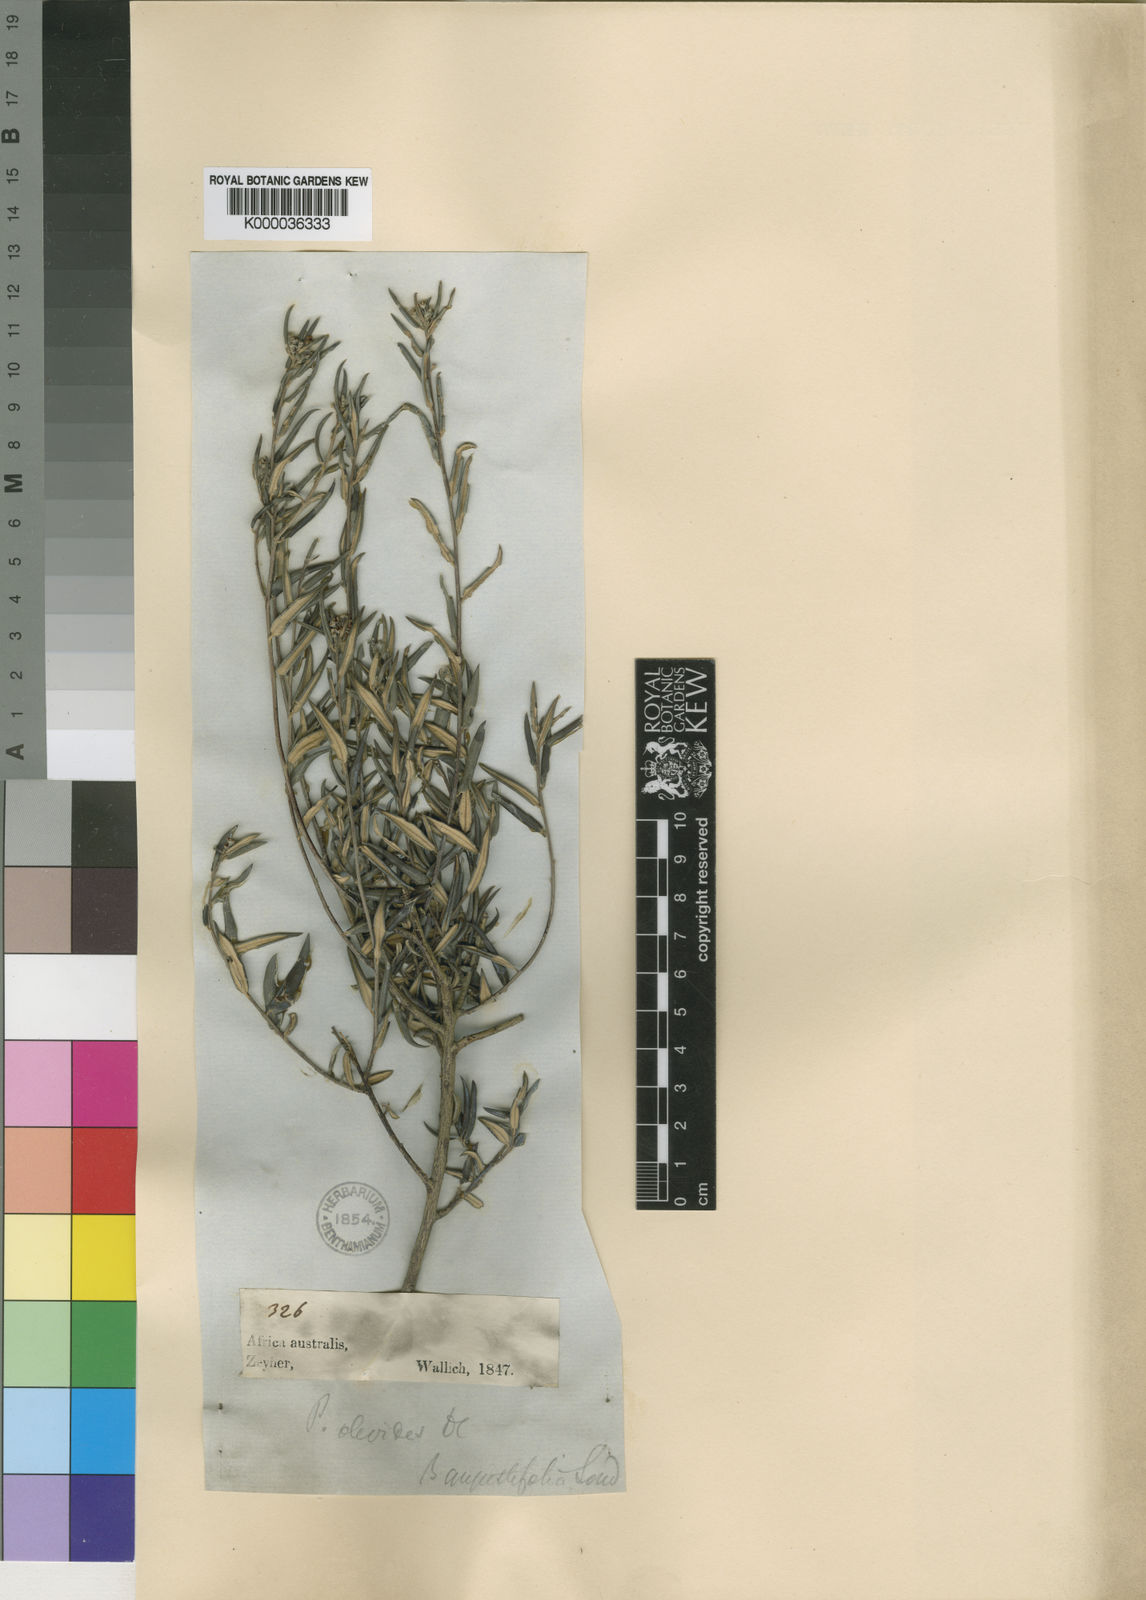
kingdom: Plantae
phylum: Tracheophyta
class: Magnoliopsida
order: Rosales
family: Rhamnaceae
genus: Phylica
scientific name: Phylica oleifolia
